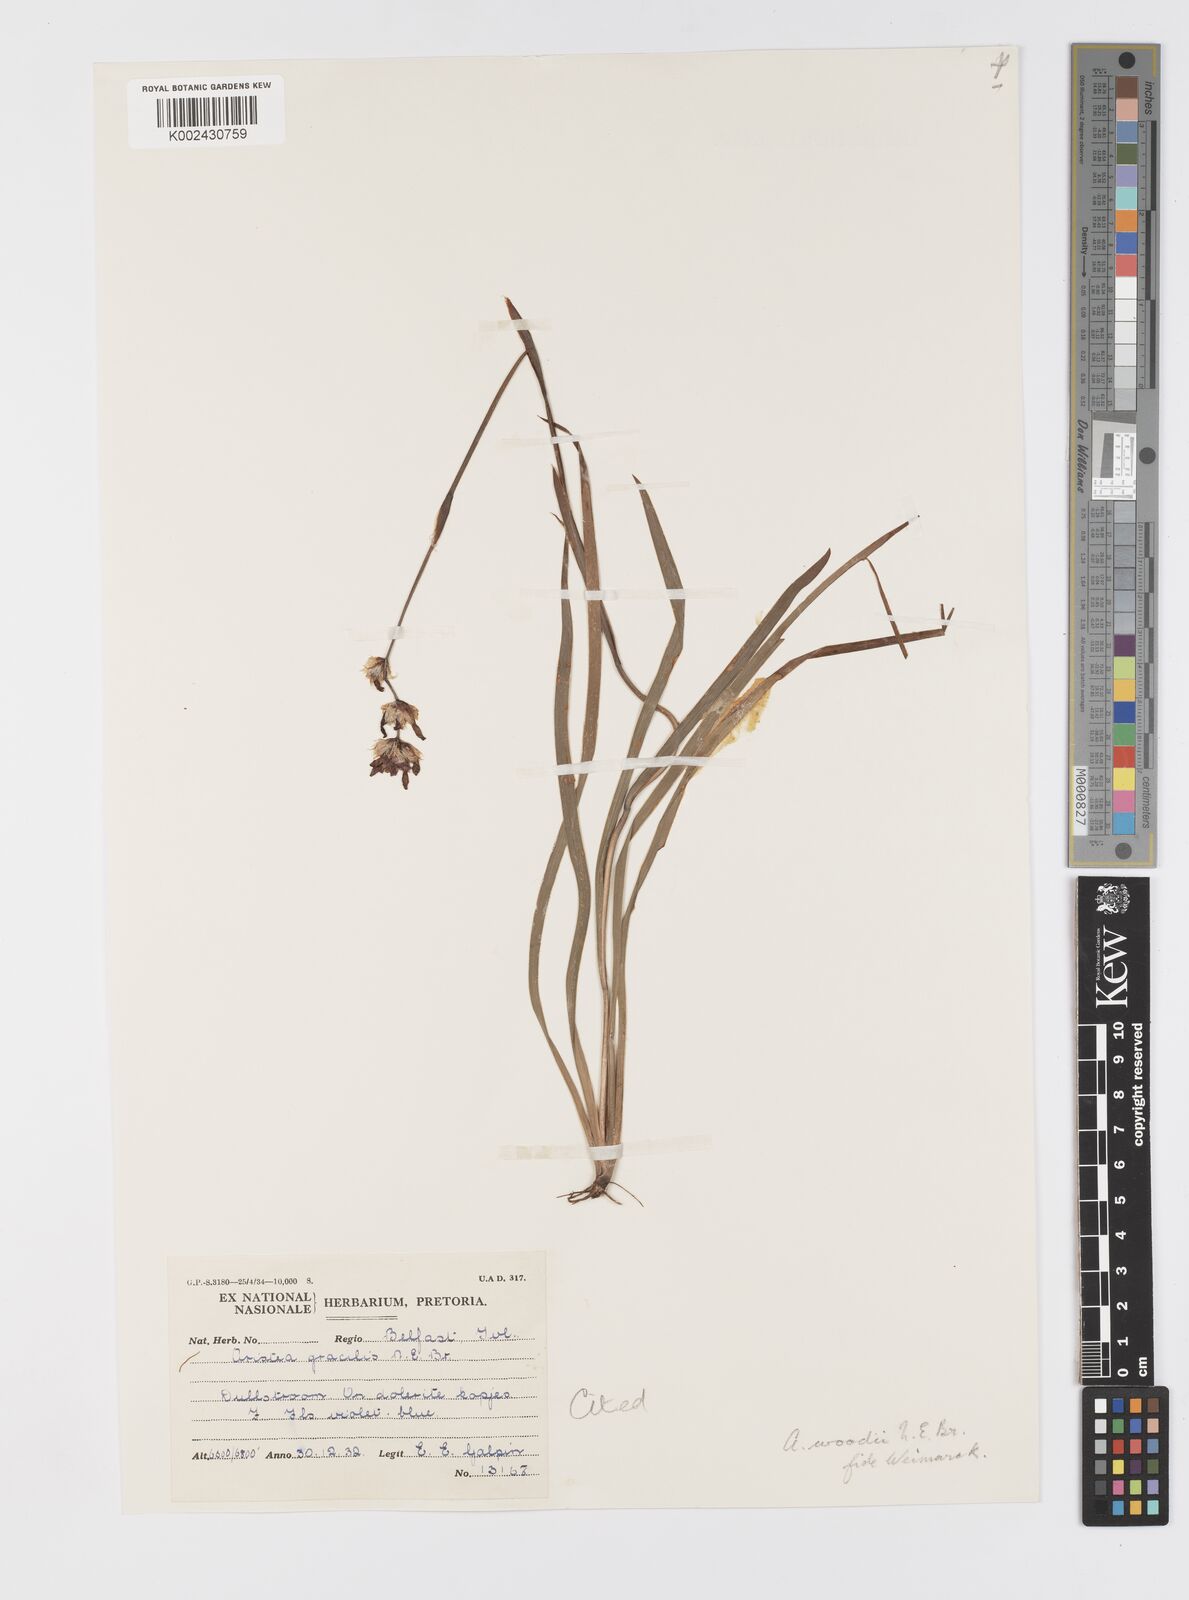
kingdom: Plantae
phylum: Tracheophyta
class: Liliopsida
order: Asparagales
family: Iridaceae
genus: Aristea
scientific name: Aristea torulosa
